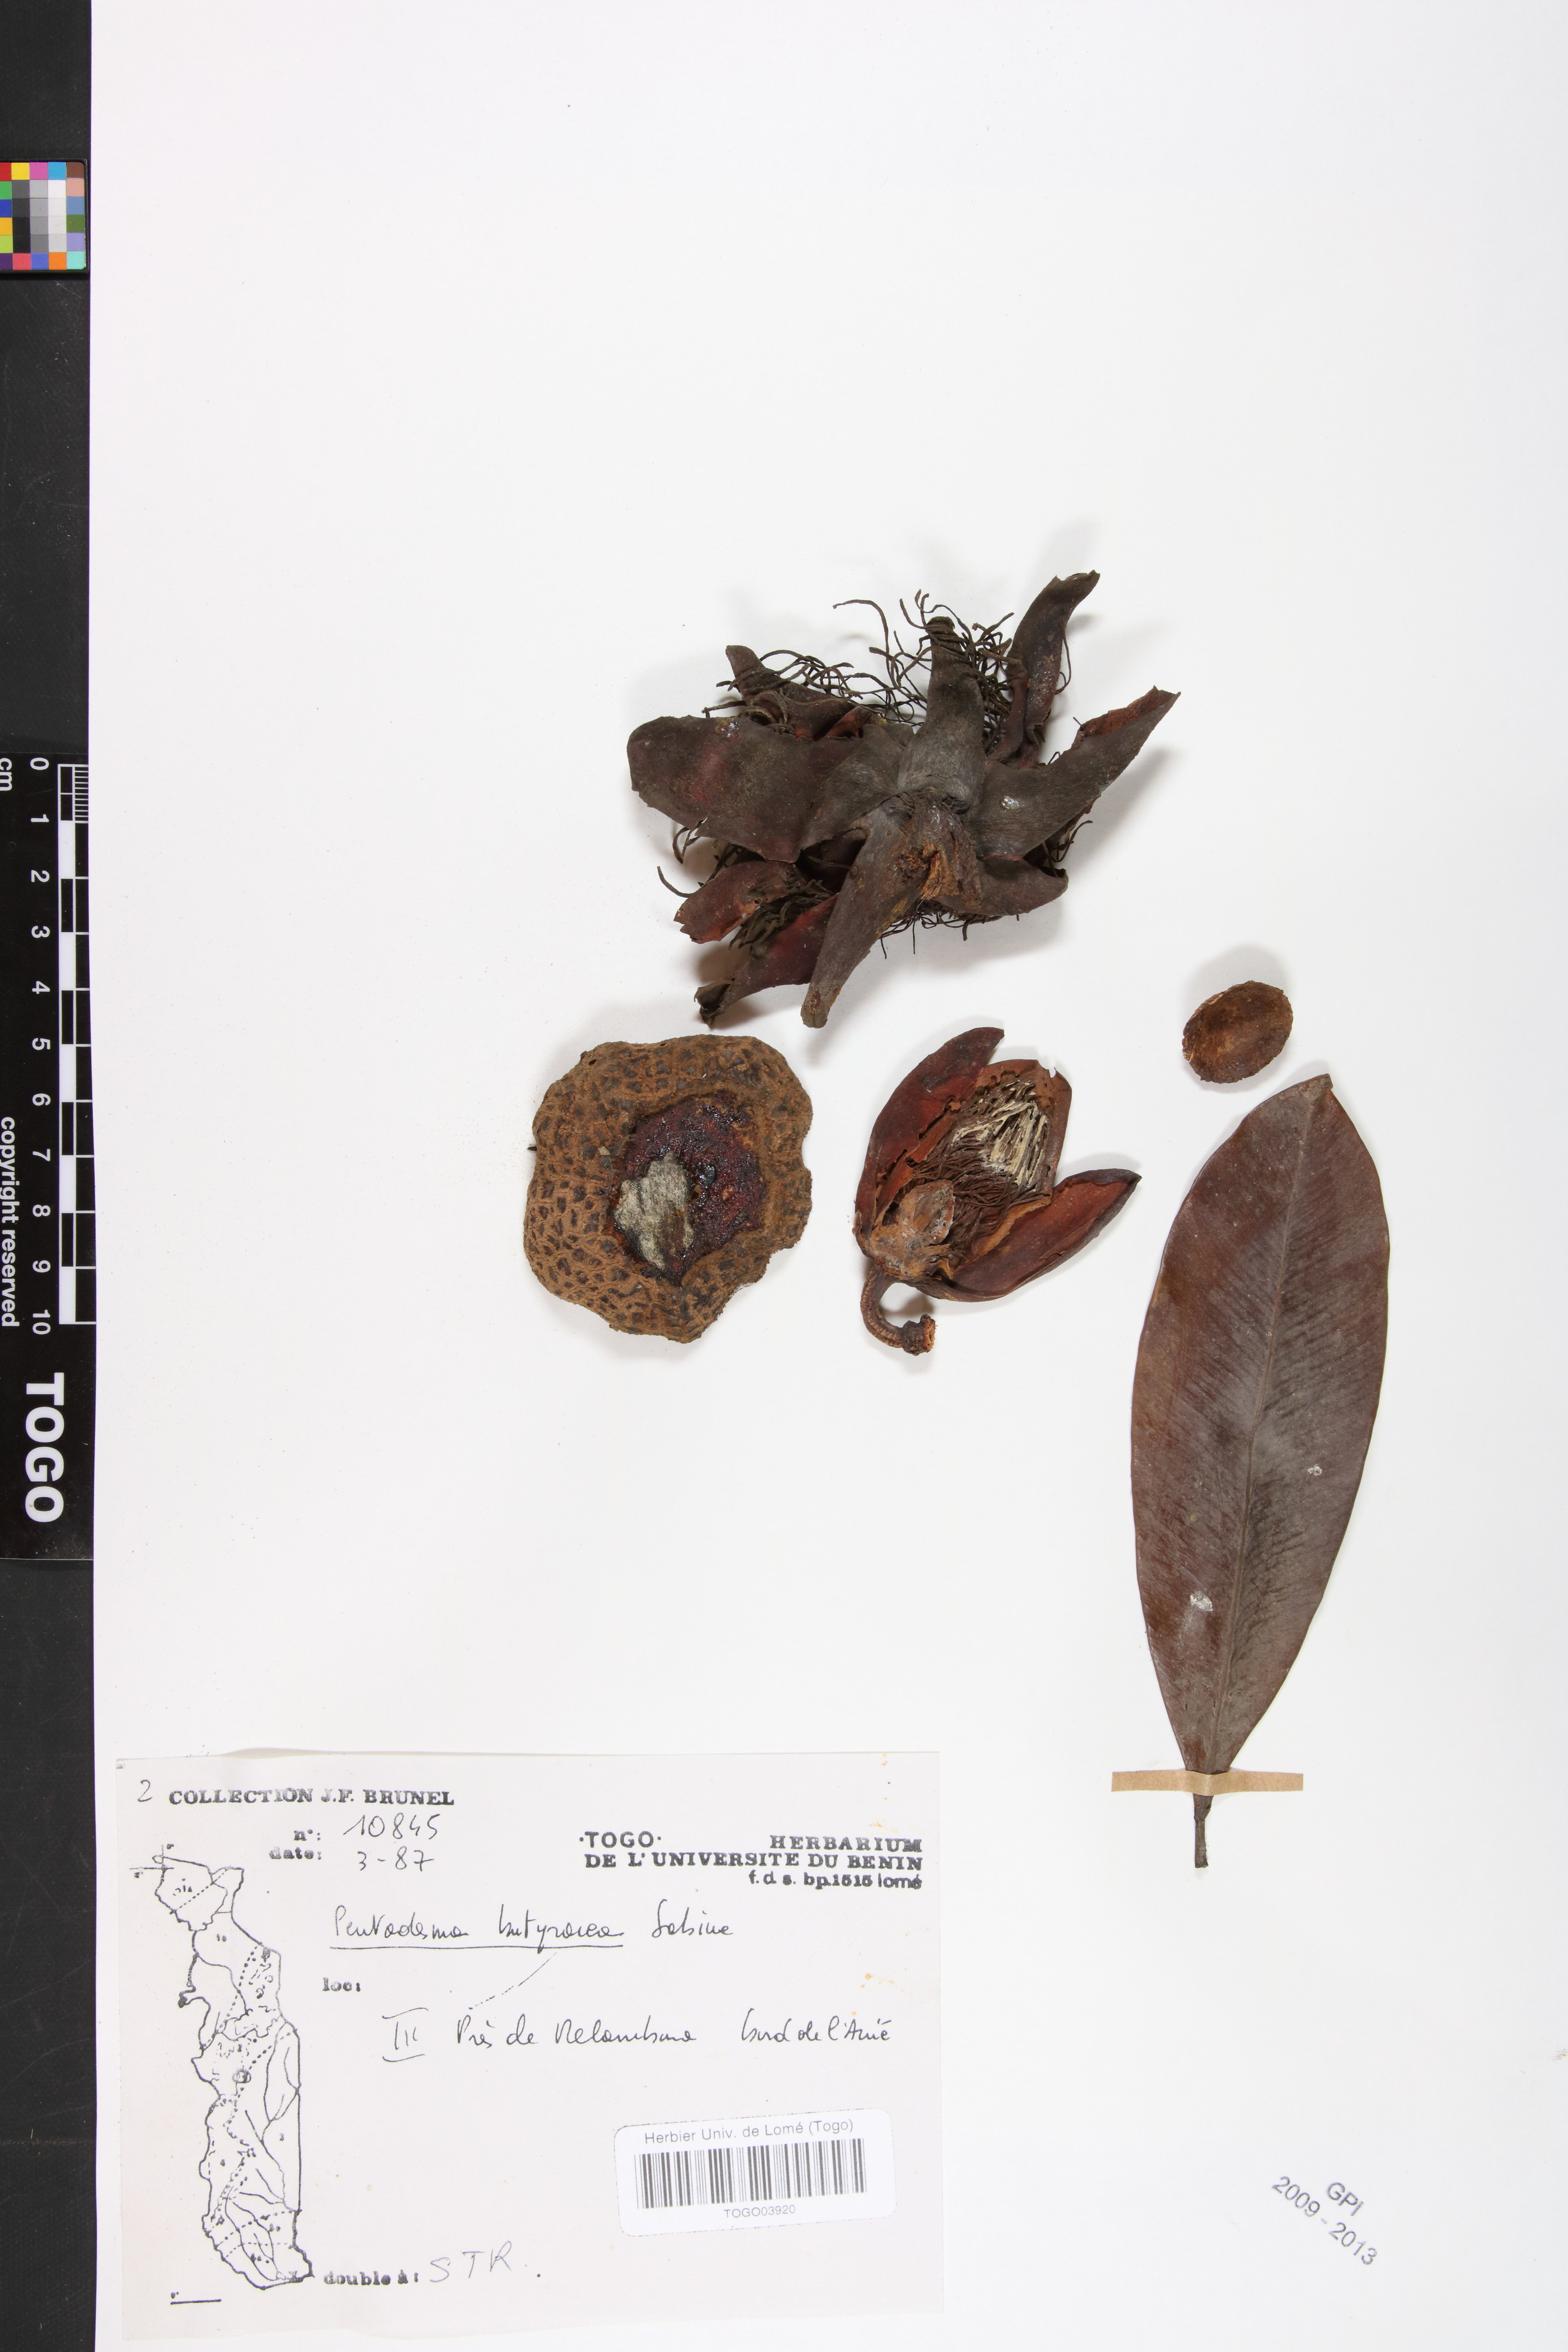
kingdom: Plantae
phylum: Tracheophyta
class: Magnoliopsida
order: Malpighiales
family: Clusiaceae
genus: Pentadesma
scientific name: Pentadesma butyracea
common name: Buttertree
